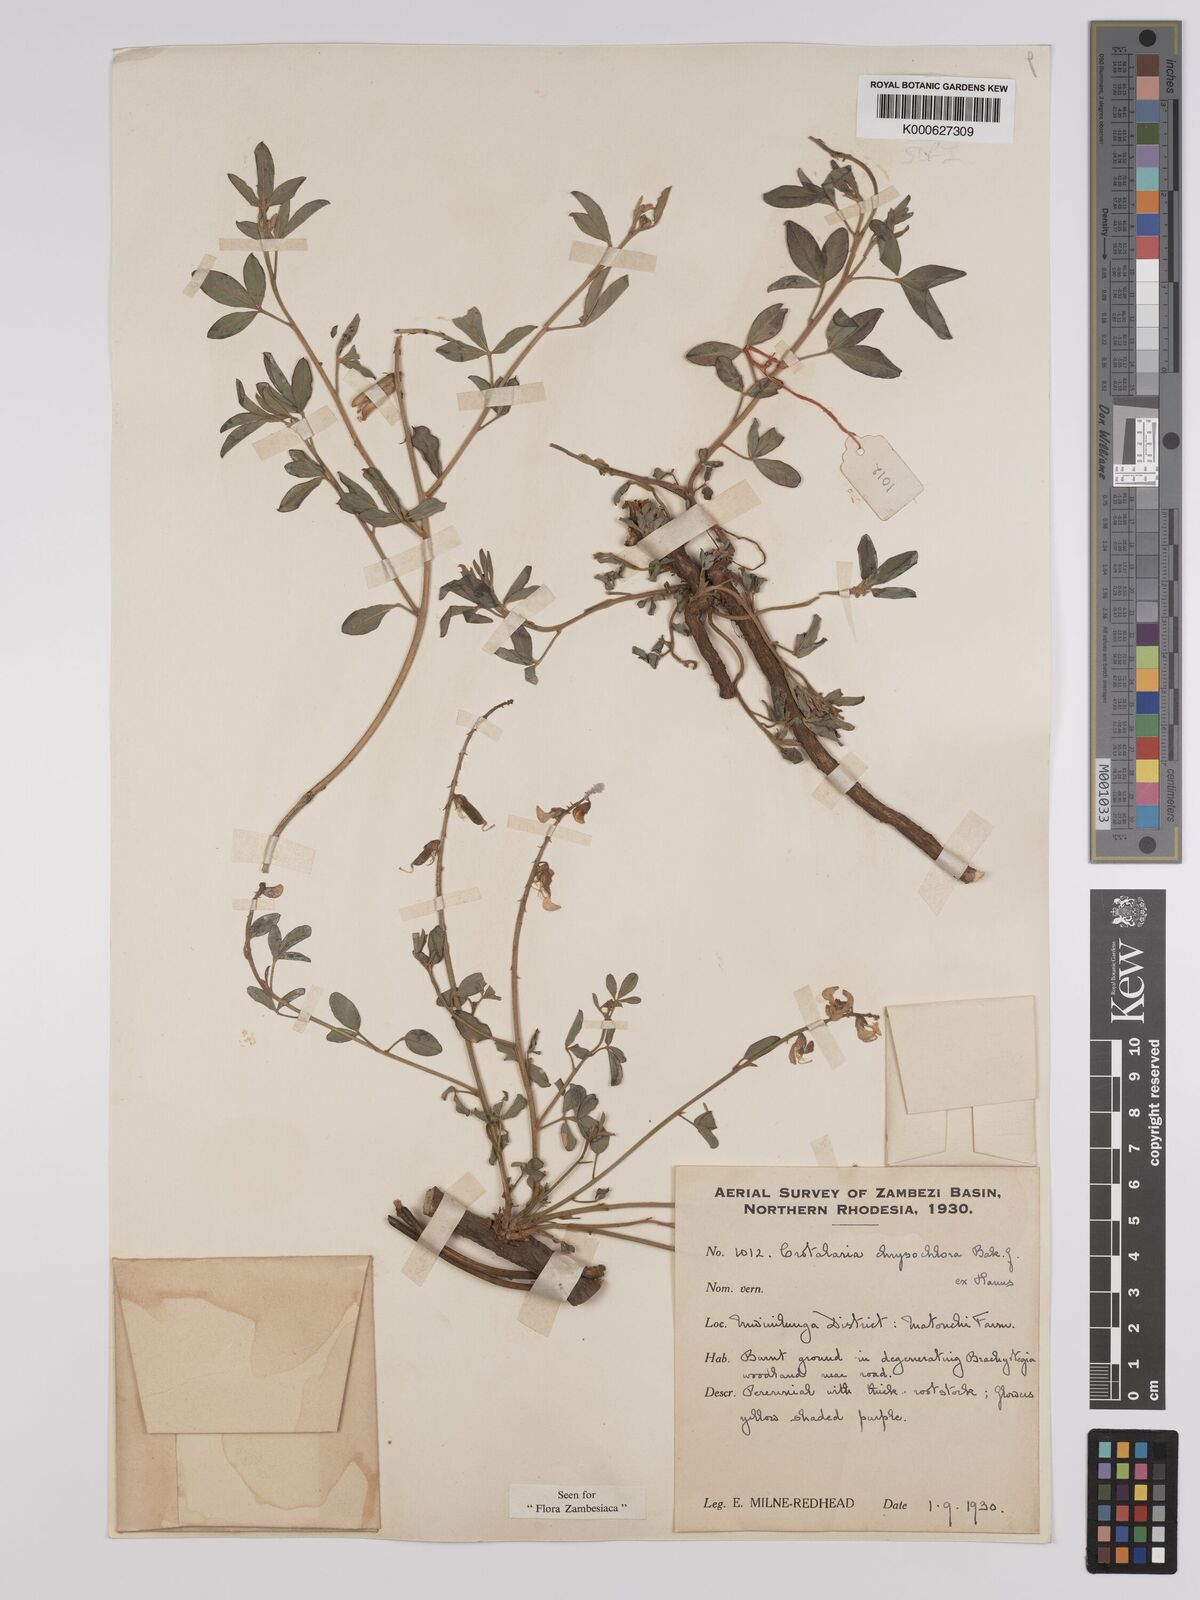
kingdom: Plantae
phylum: Tracheophyta
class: Magnoliopsida
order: Fabales
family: Fabaceae
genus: Crotalaria
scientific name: Crotalaria chrysochlora ex
